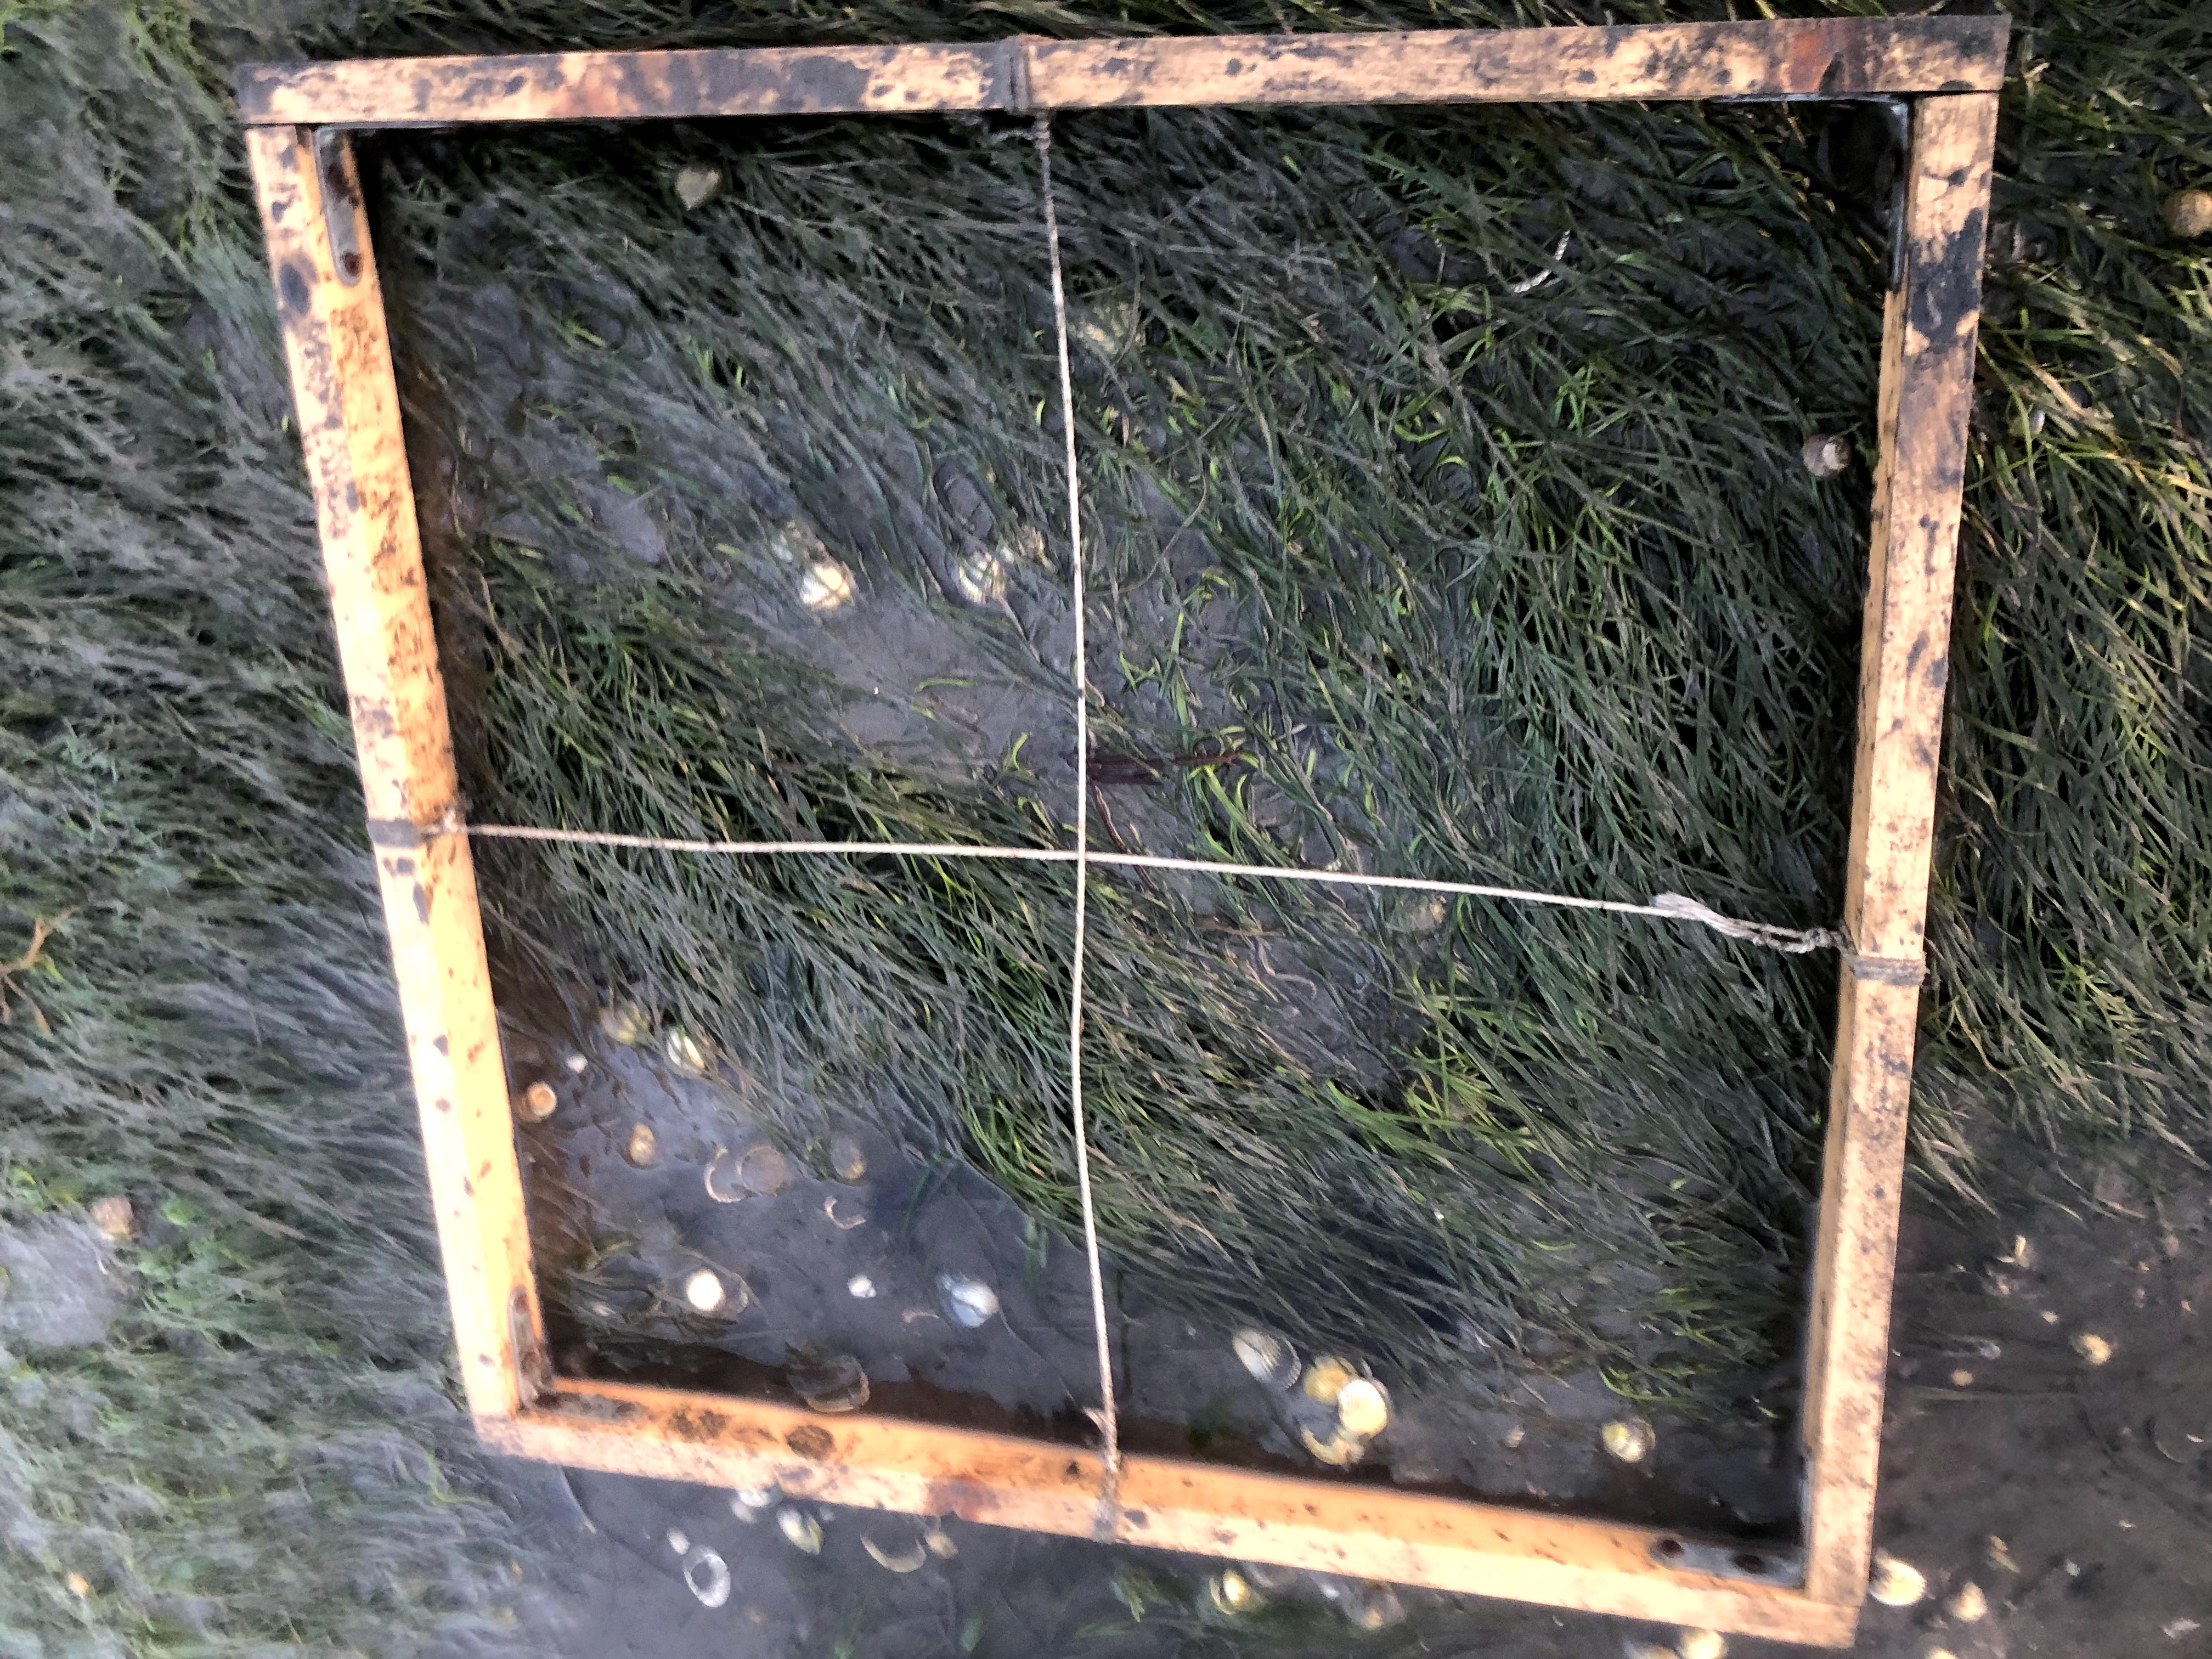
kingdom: Plantae
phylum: Tracheophyta
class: Liliopsida
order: Alismatales
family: Zosteraceae
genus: Zostera
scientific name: Zostera noltii
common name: Dwarf eelgrass
